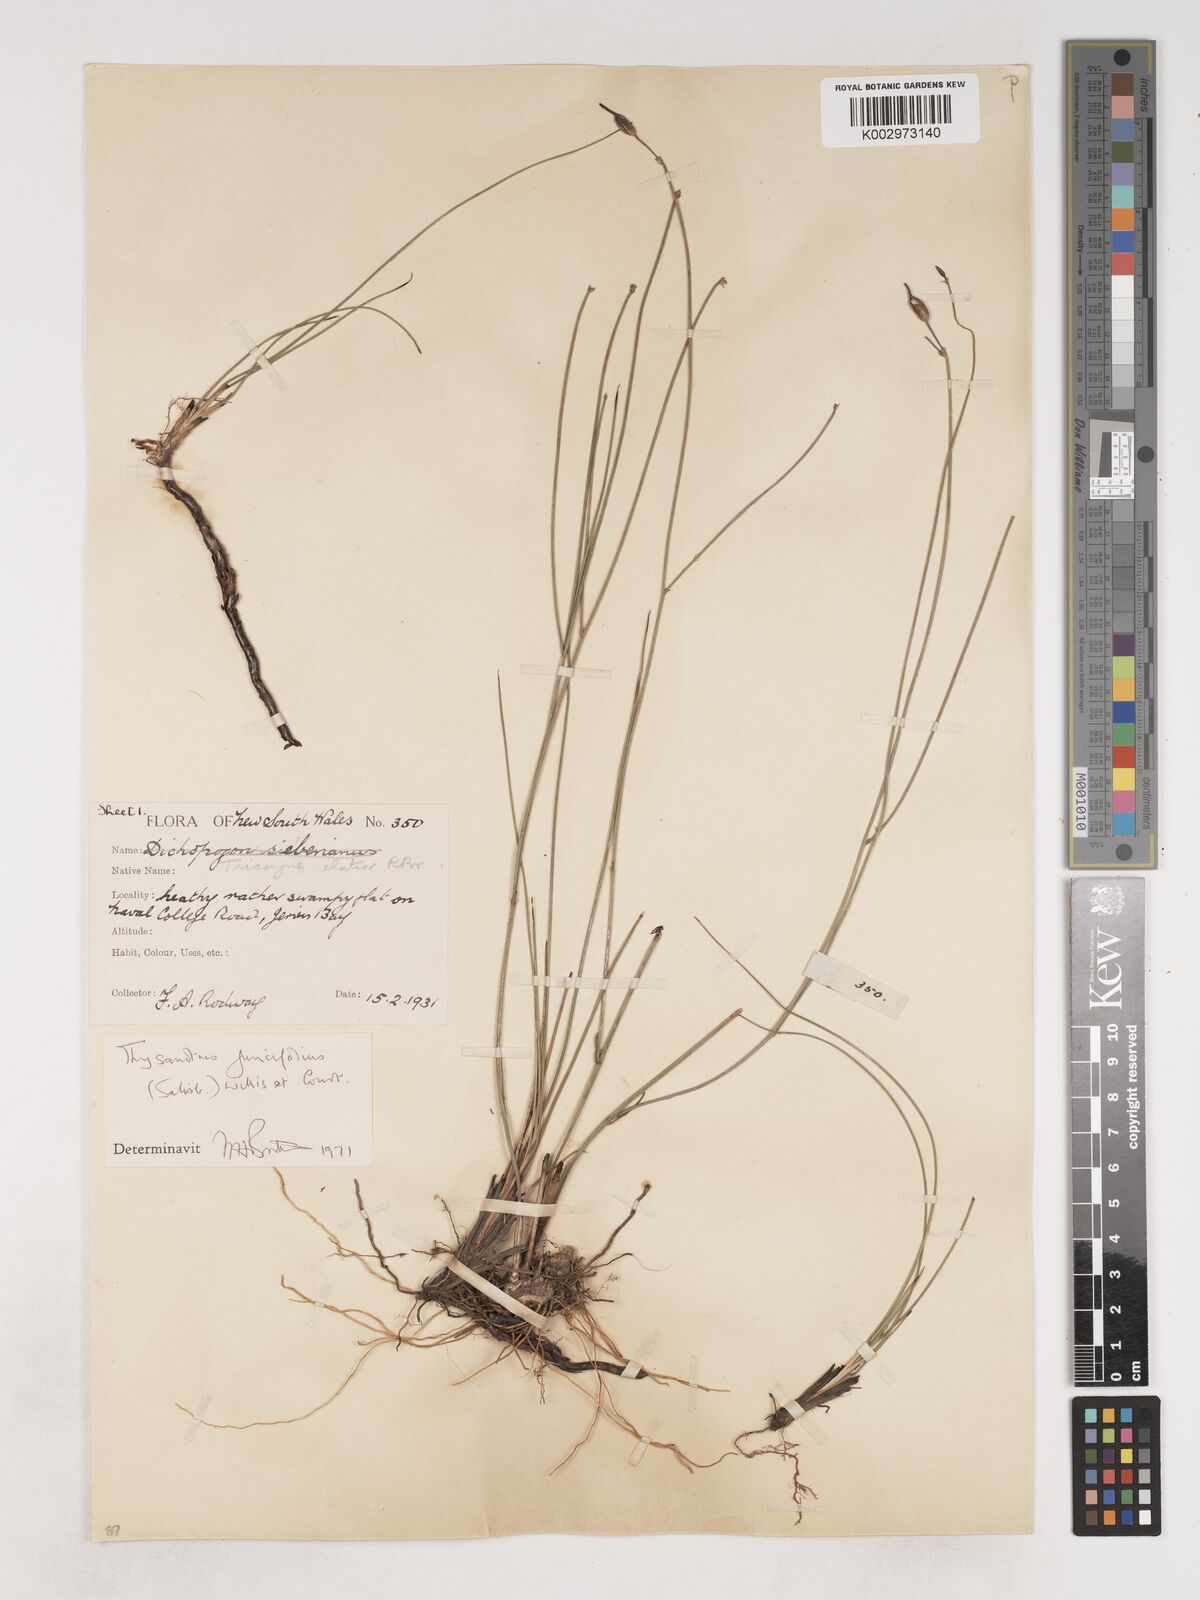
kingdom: Plantae
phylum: Tracheophyta
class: Liliopsida
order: Asparagales
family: Asparagaceae
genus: Thysanotus
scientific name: Thysanotus juncifolius
